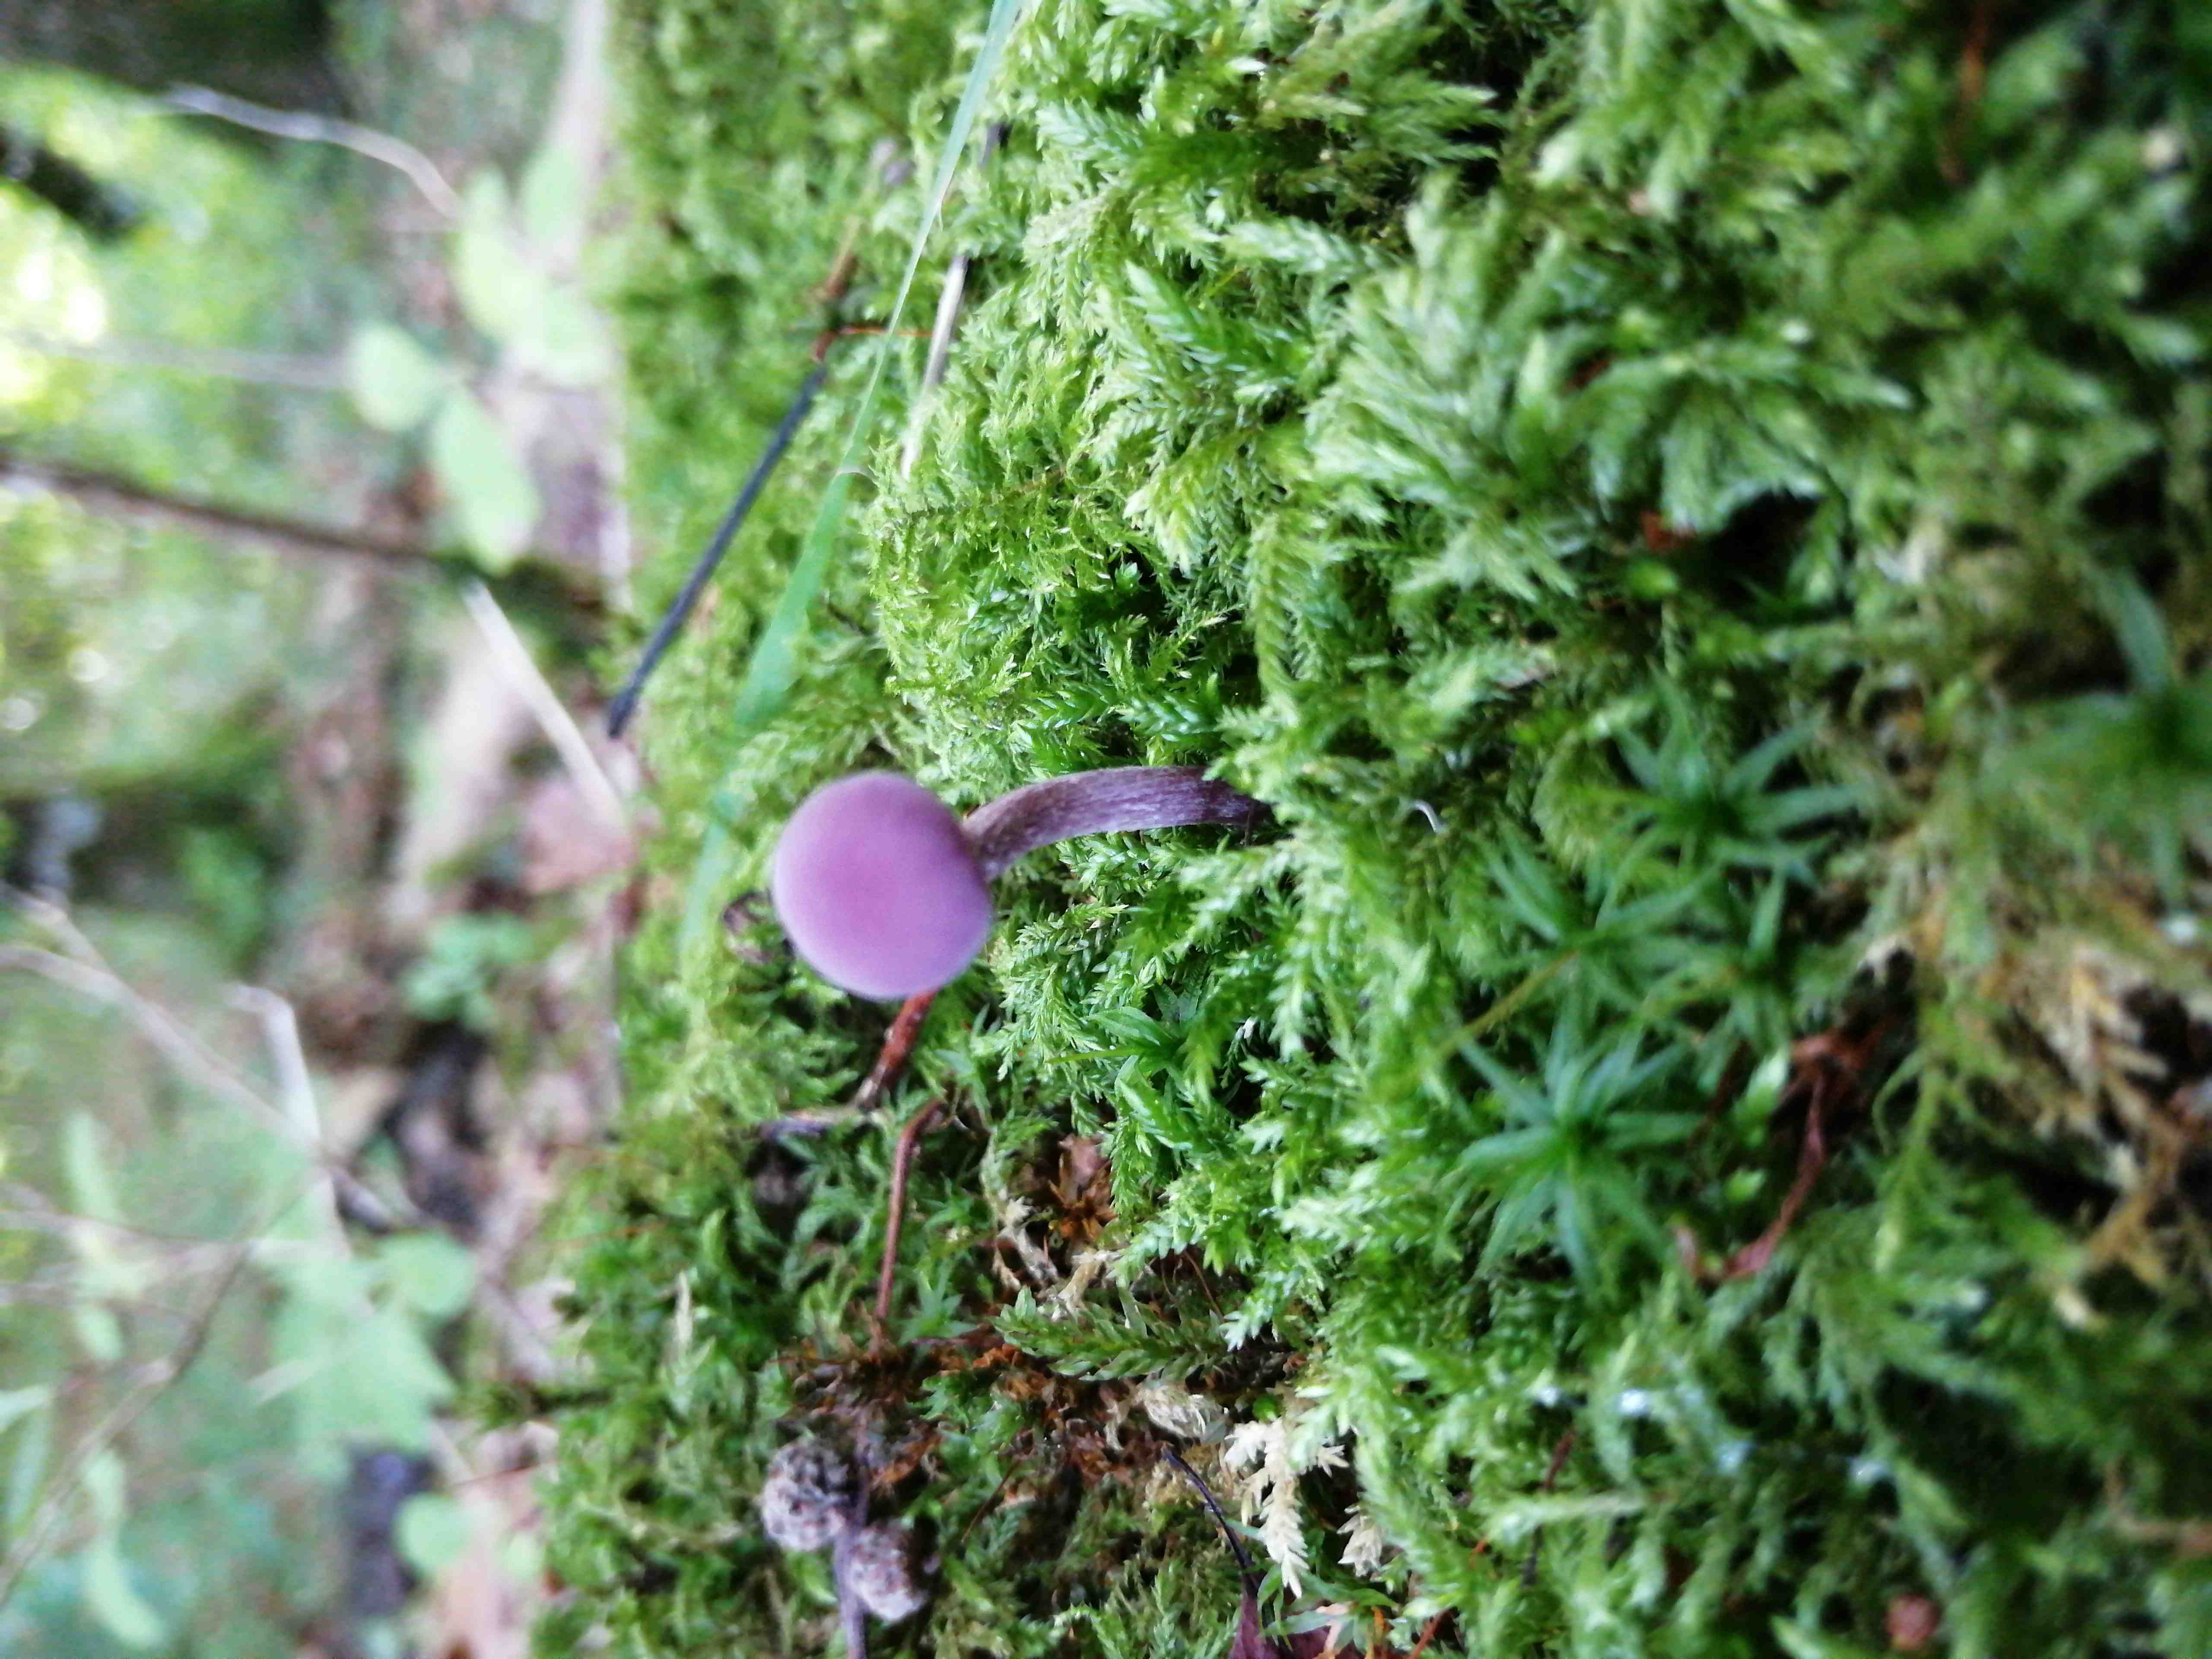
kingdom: Fungi
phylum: Basidiomycota
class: Agaricomycetes
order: Agaricales
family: Hydnangiaceae
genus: Laccaria
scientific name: Laccaria amethystina
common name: violet ametysthat
